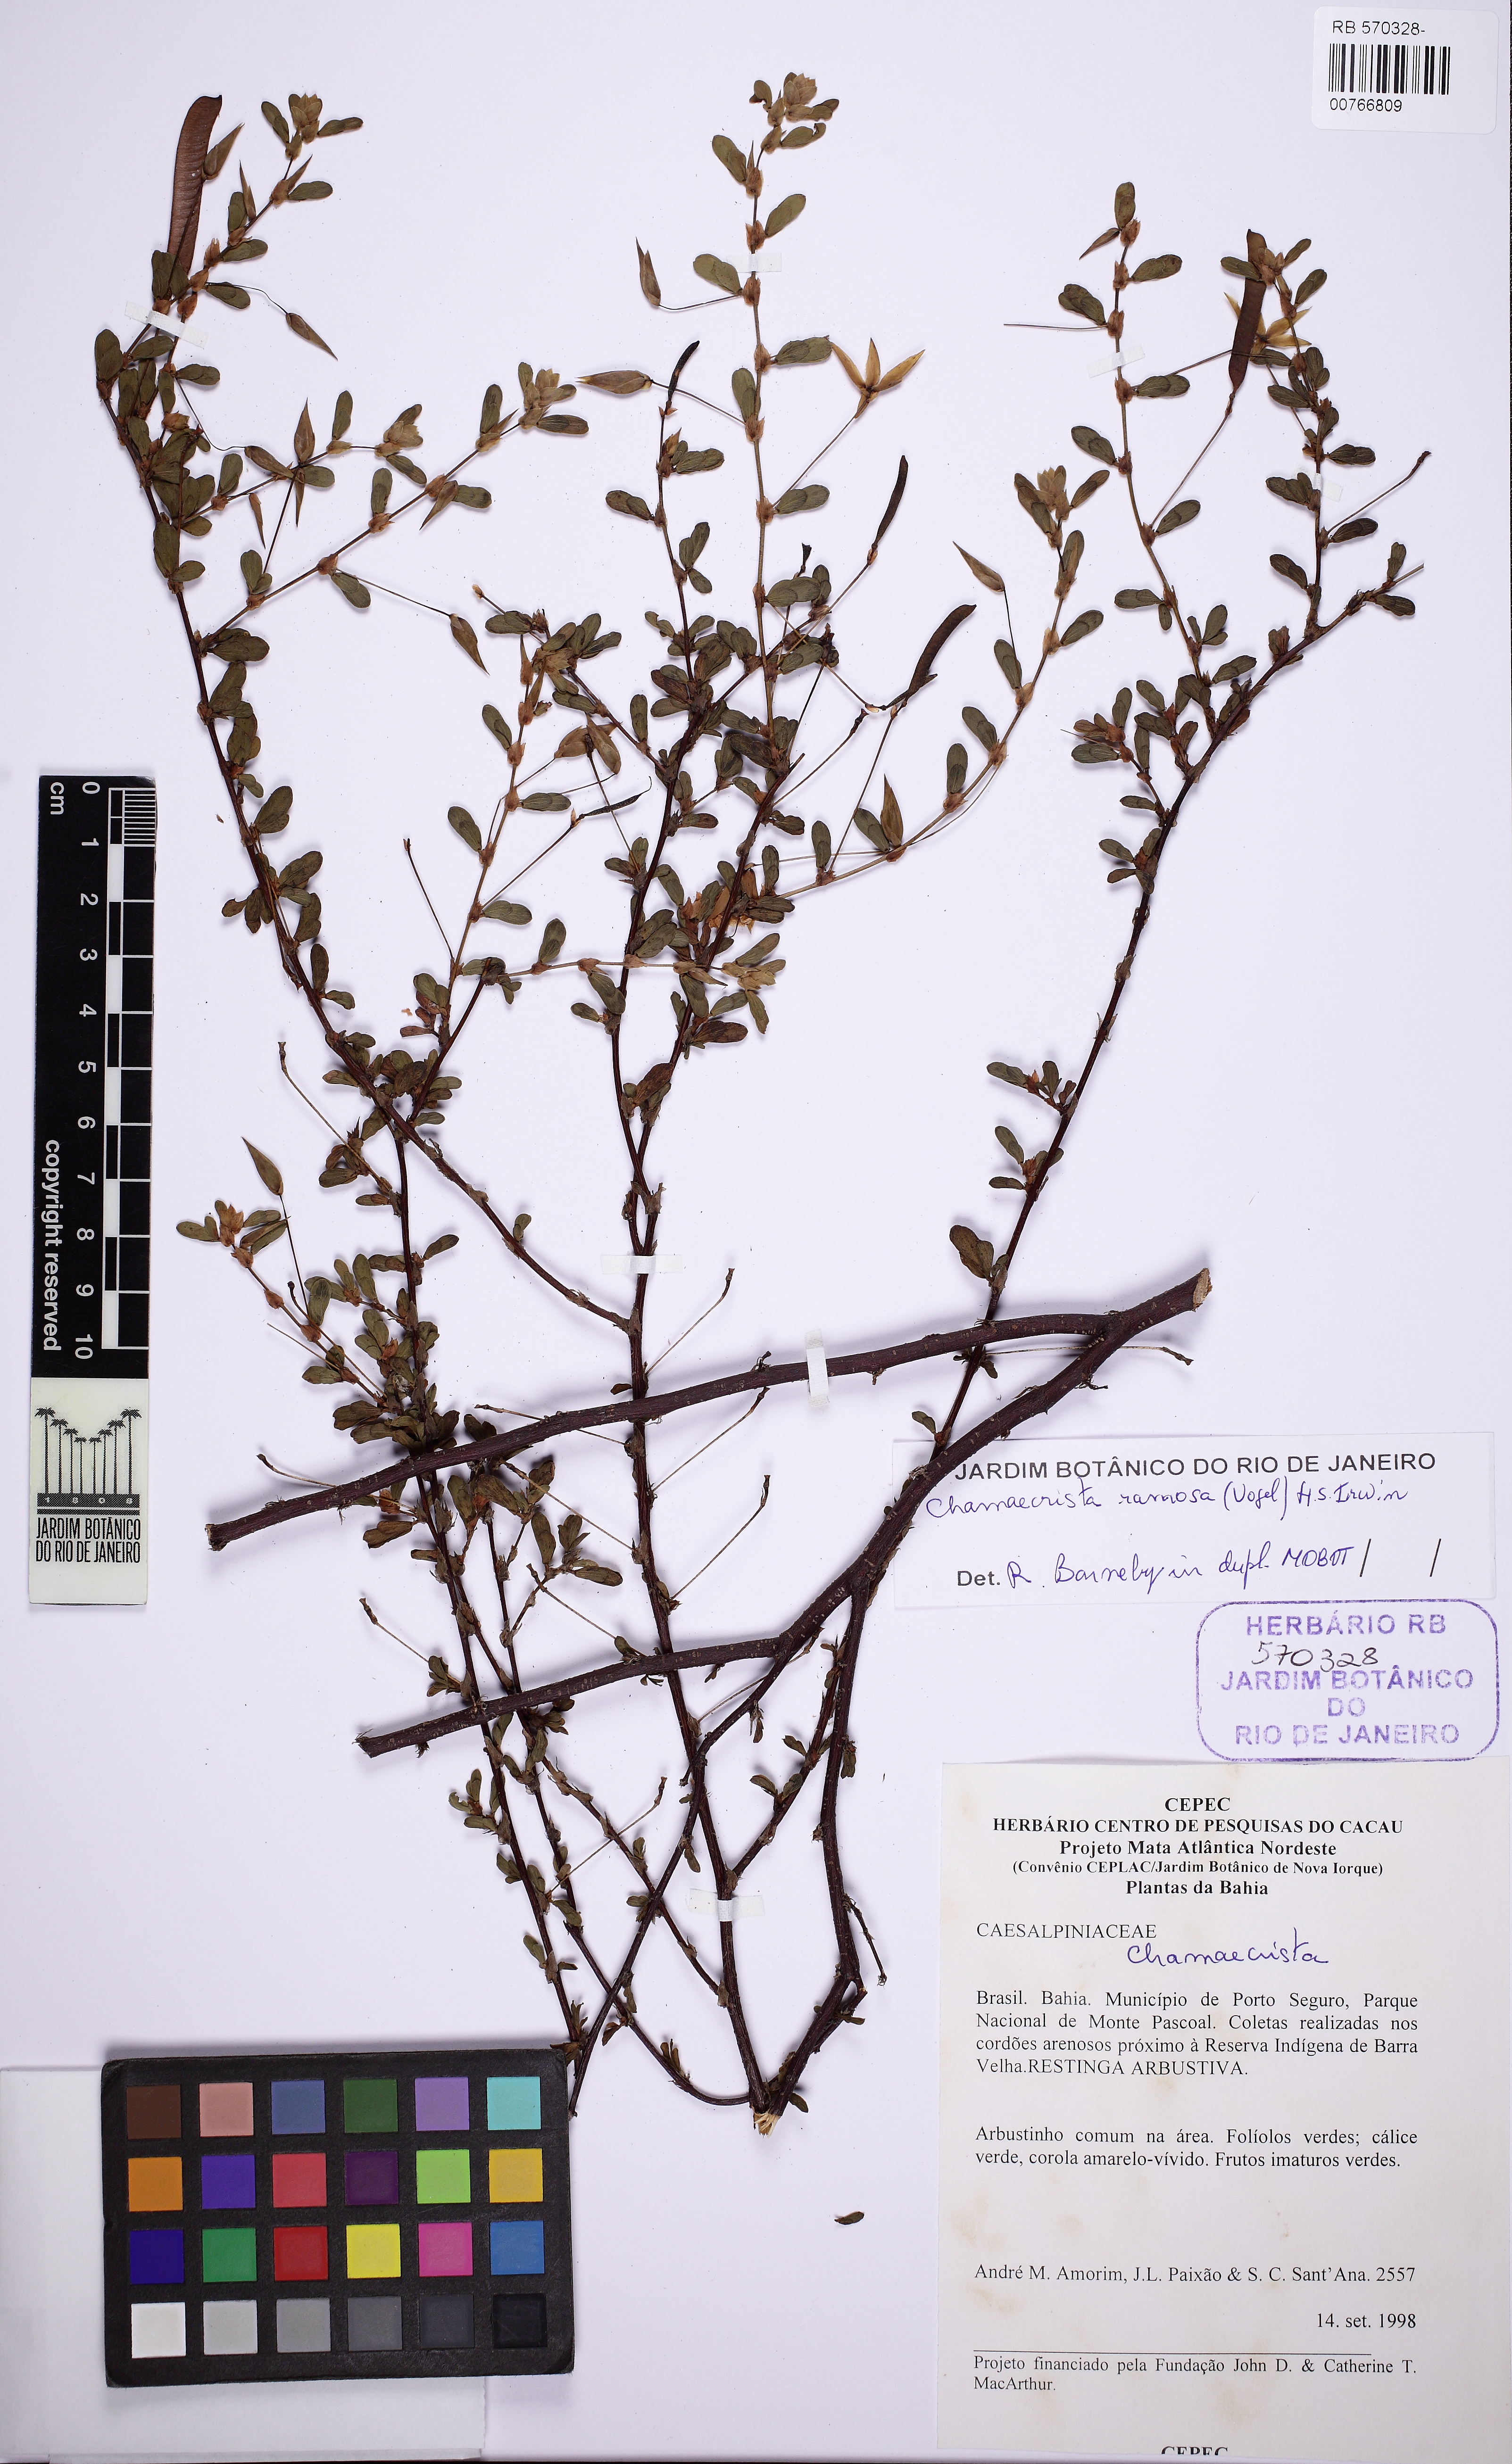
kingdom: Plantae
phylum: Tracheophyta
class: Magnoliopsida
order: Fabales
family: Fabaceae
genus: Chamaecrista
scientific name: Chamaecrista ramosa
